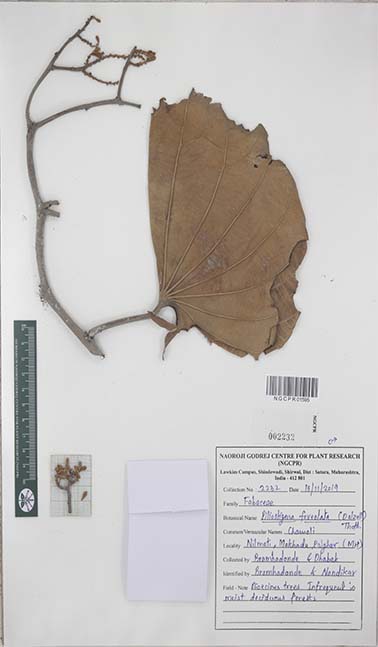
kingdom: Plantae
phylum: Tracheophyta
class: Magnoliopsida
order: Fabales
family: Fabaceae
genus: Piliostigma
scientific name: Piliostigma foveolatum
